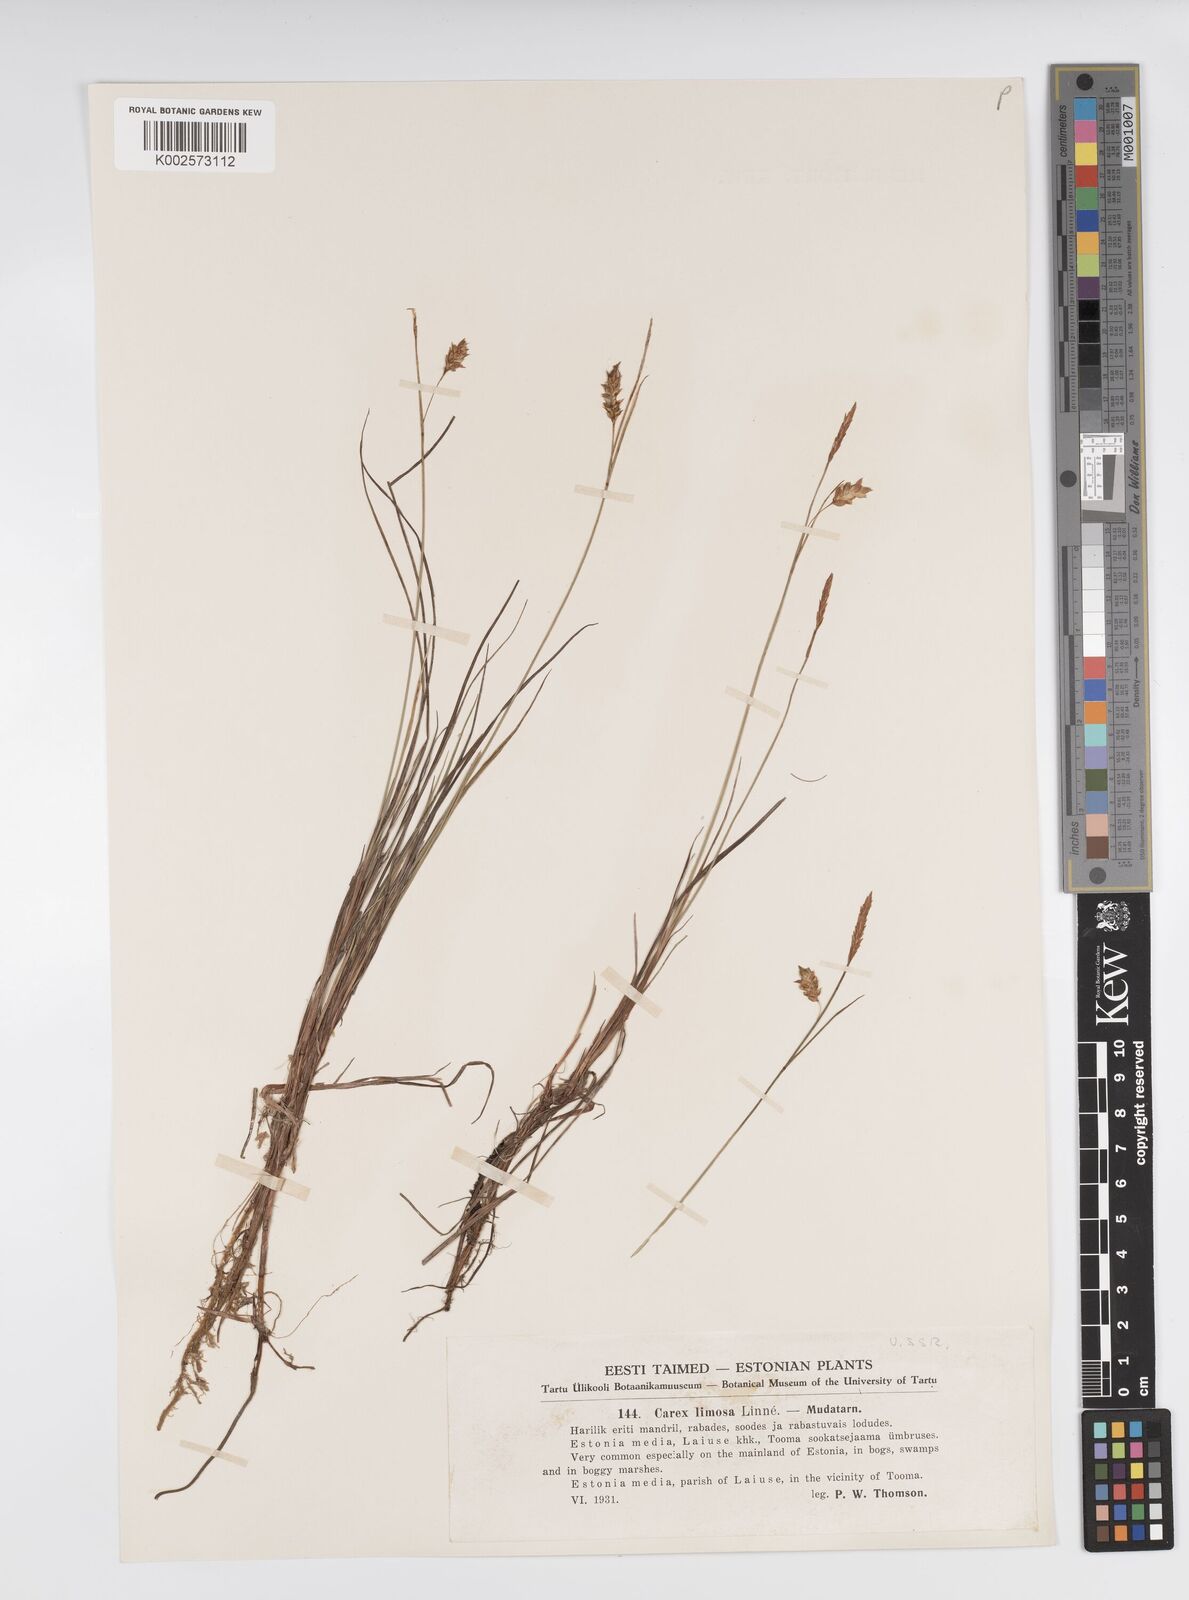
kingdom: Plantae
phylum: Tracheophyta
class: Liliopsida
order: Poales
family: Cyperaceae
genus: Carex
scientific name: Carex limosa
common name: Bog sedge
